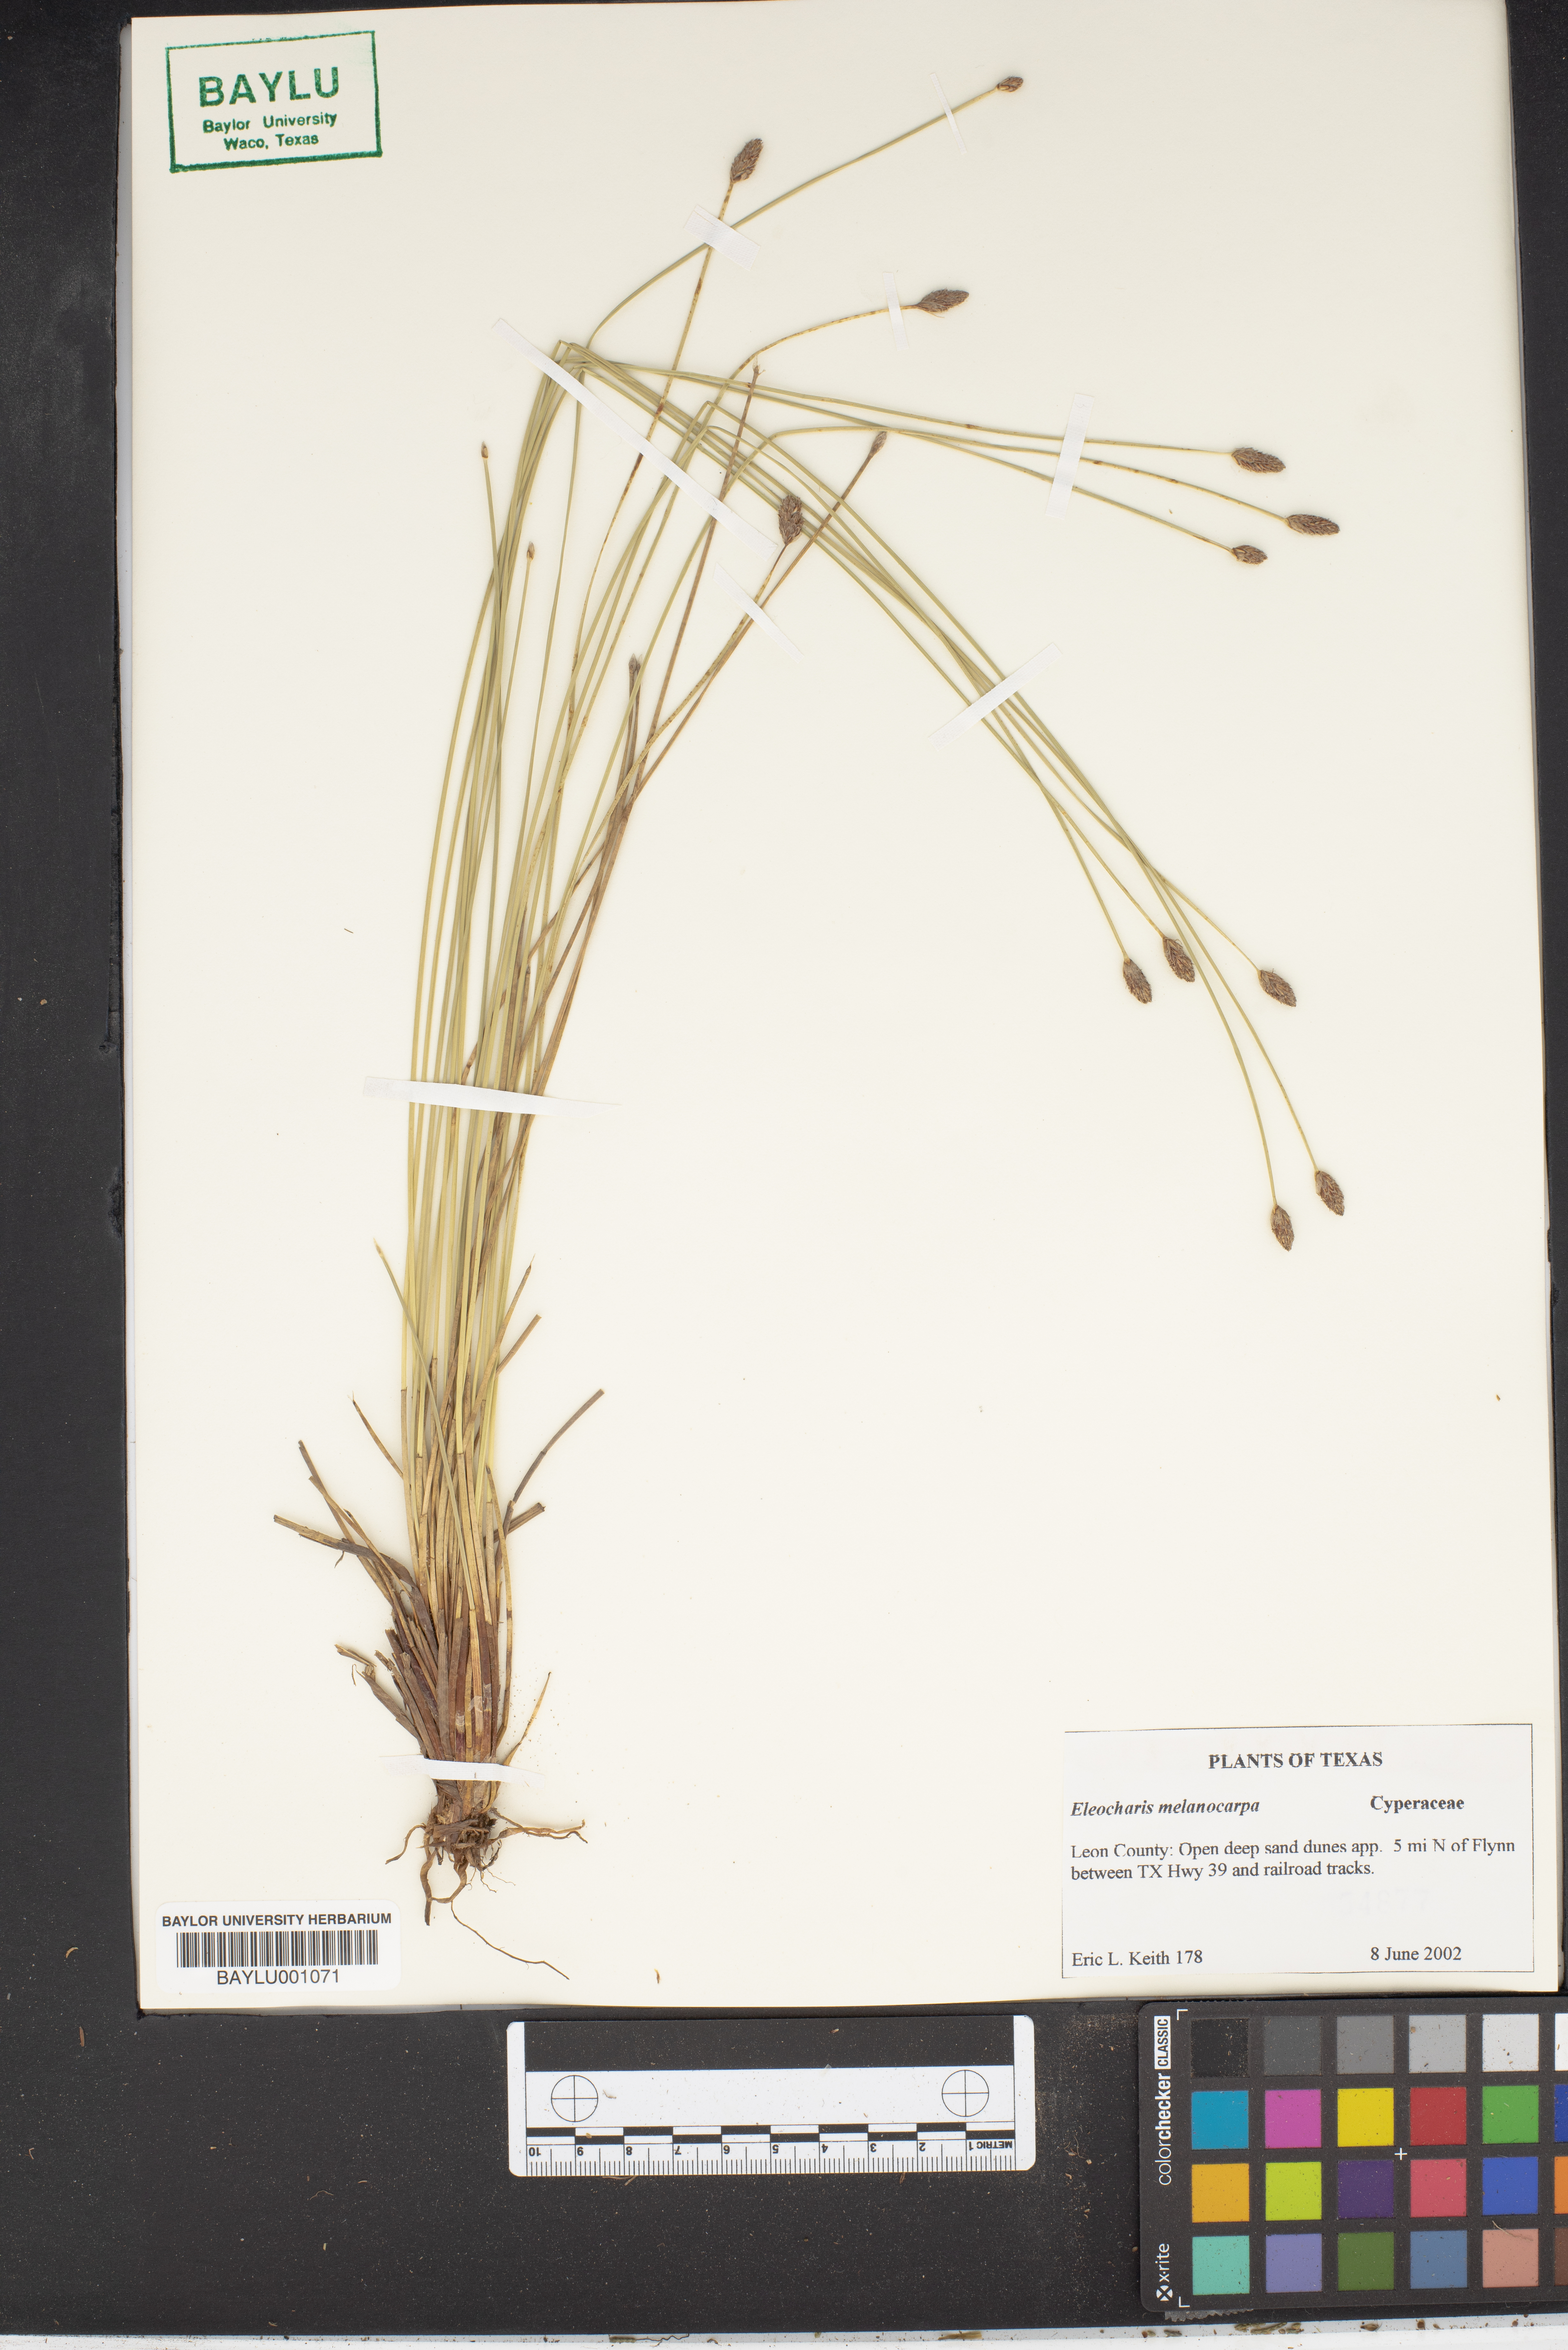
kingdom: Plantae
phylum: Tracheophyta
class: Liliopsida
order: Poales
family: Cyperaceae
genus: Eleocharis
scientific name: Eleocharis melanocarpa
